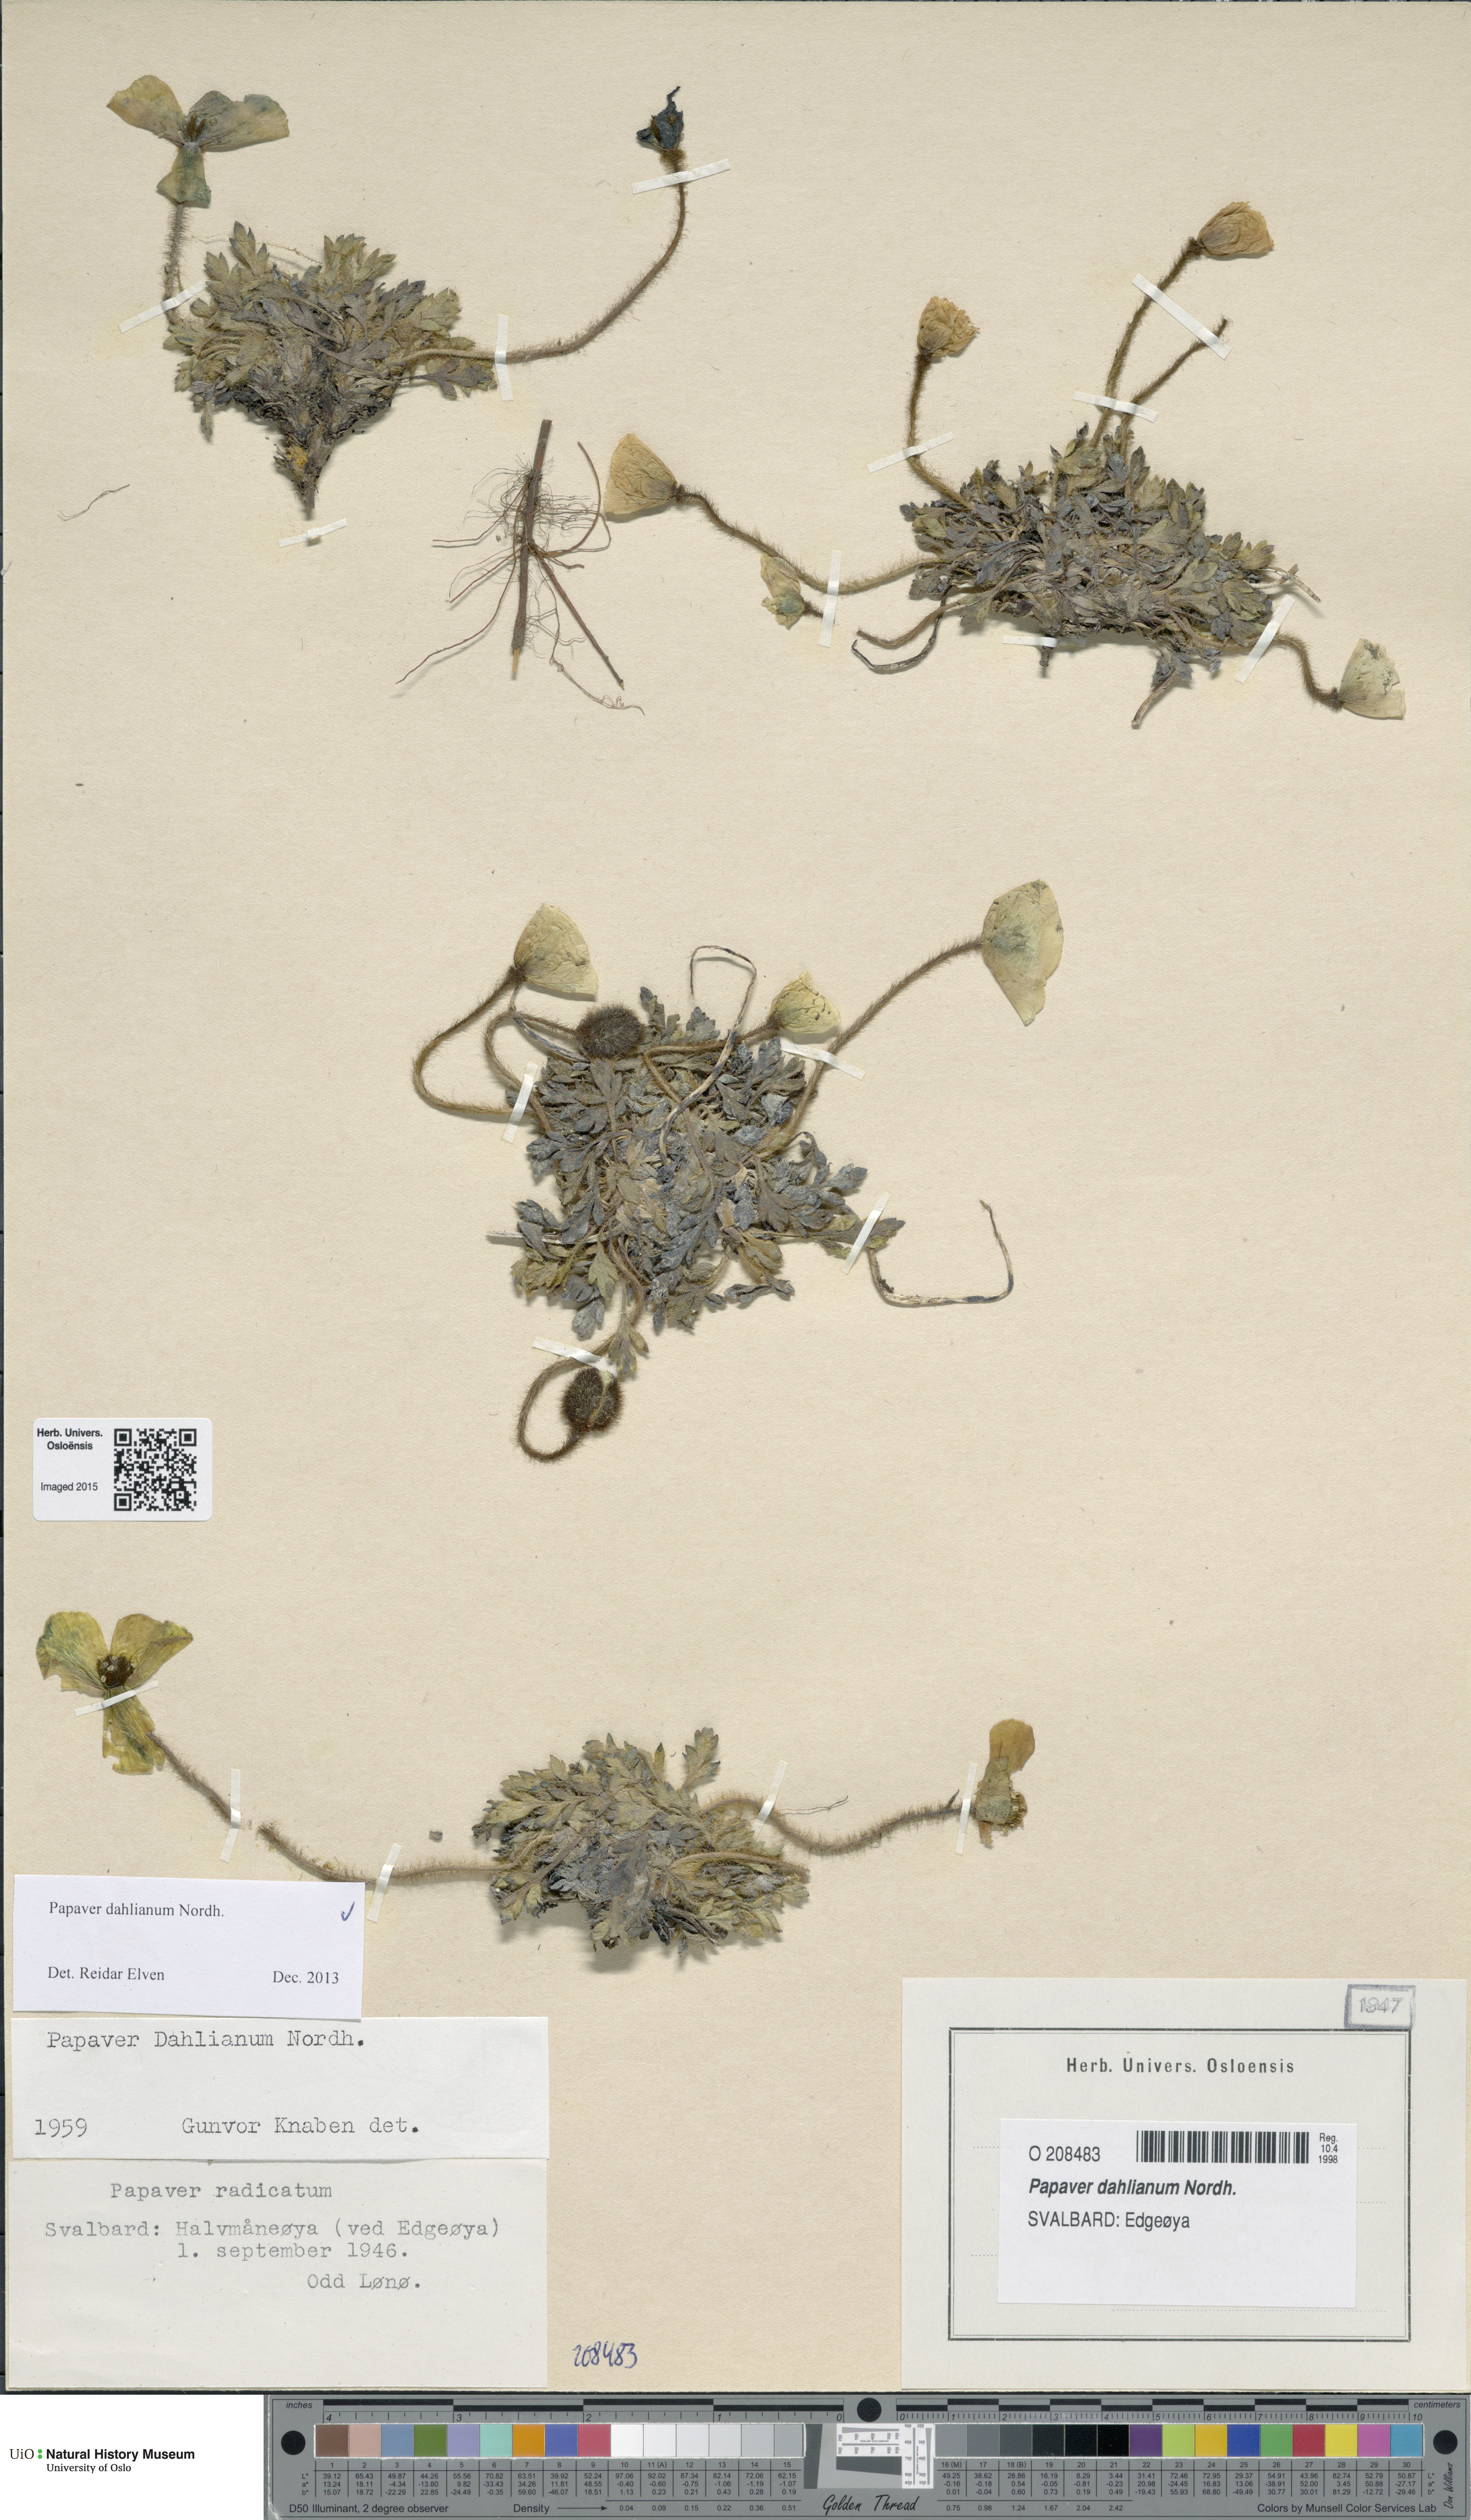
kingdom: Plantae
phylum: Tracheophyta
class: Magnoliopsida
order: Ranunculales
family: Papaveraceae
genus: Papaver
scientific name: Papaver radicatum
